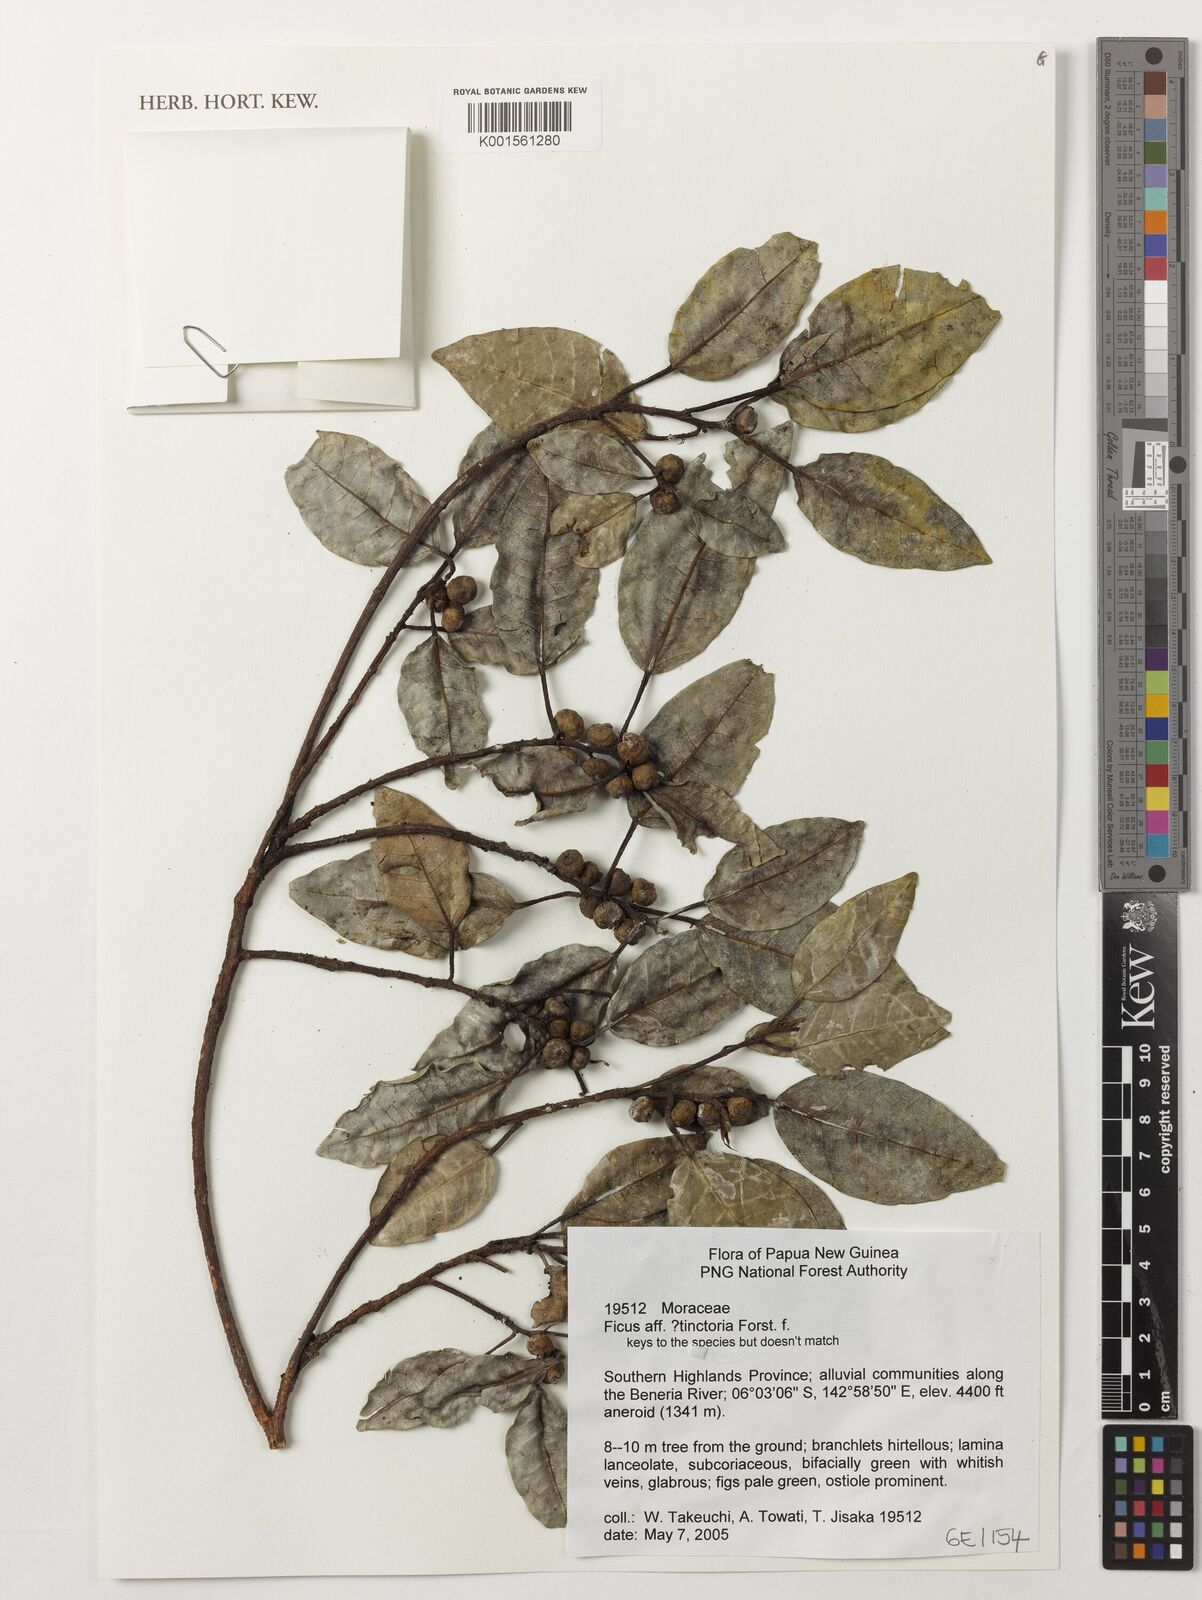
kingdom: Plantae
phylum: Tracheophyta
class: Magnoliopsida
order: Rosales
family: Moraceae
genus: Ficus
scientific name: Ficus tinctoria
